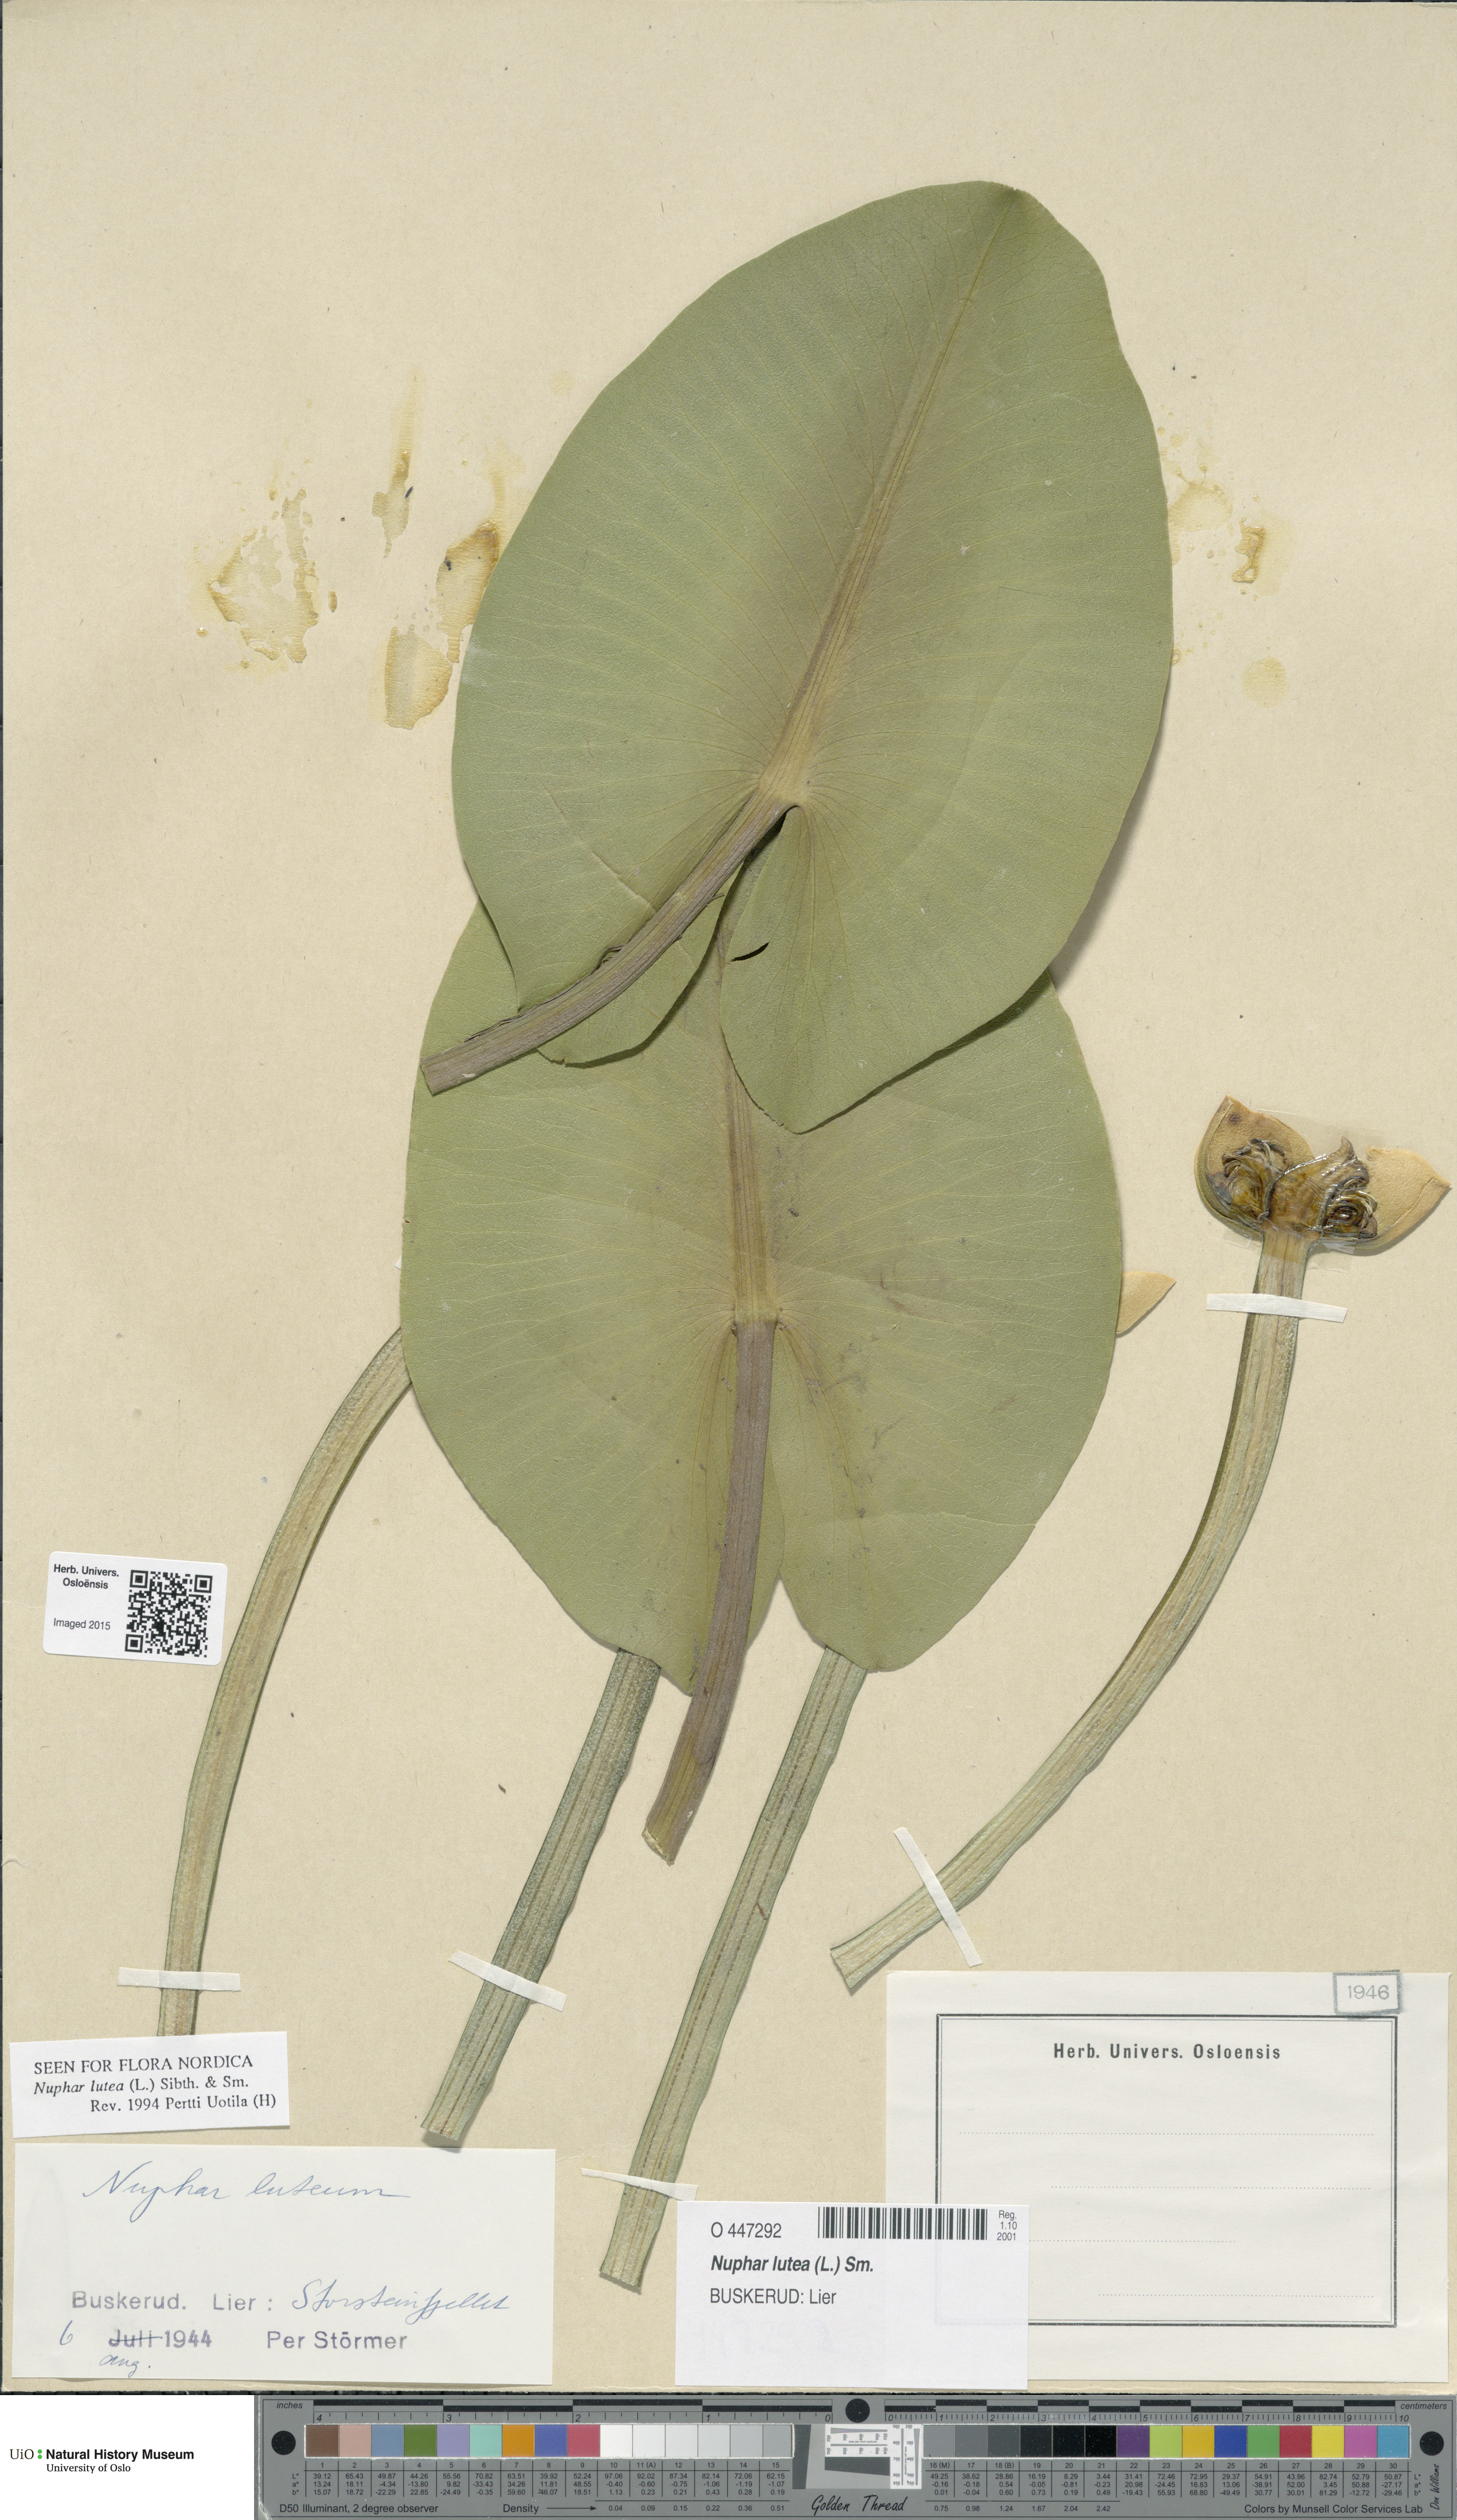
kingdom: Plantae
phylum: Tracheophyta
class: Magnoliopsida
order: Nymphaeales
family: Nymphaeaceae
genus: Nuphar
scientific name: Nuphar lutea
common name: Yellow water-lily
